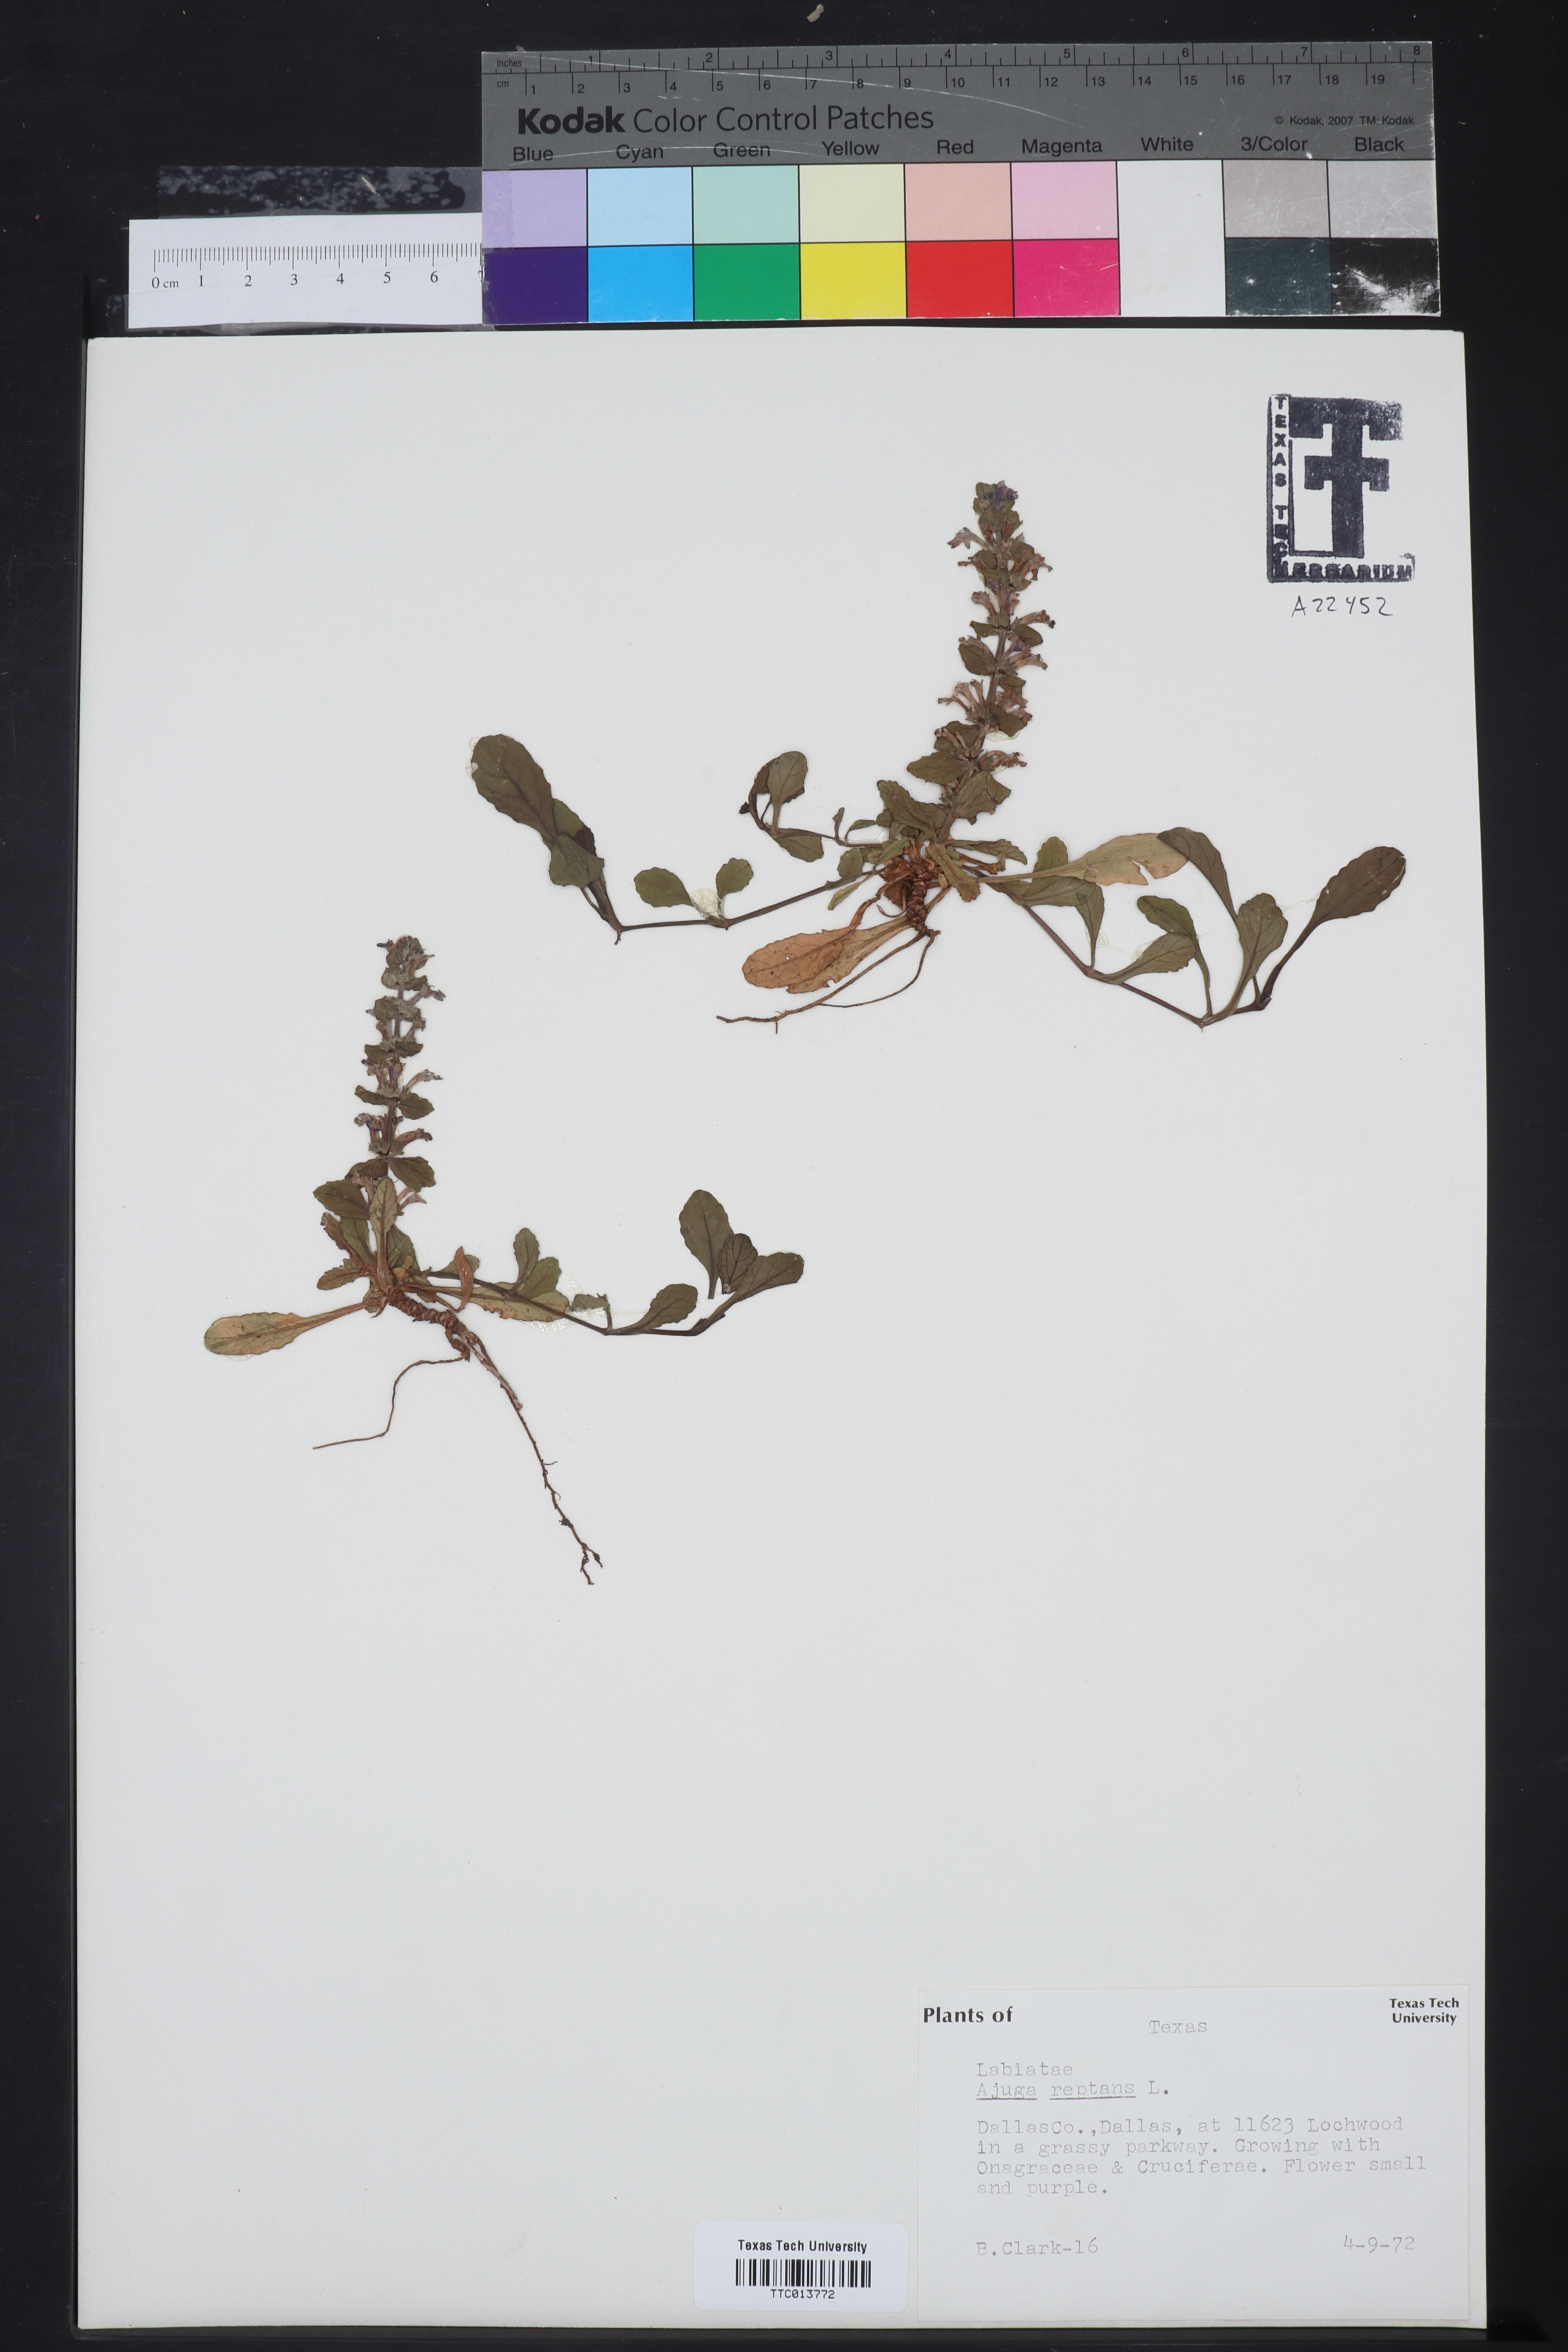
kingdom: Plantae
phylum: Tracheophyta
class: Magnoliopsida
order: Lamiales
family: Lamiaceae
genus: Ajuga
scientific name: Ajuga reptans
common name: Bugle
